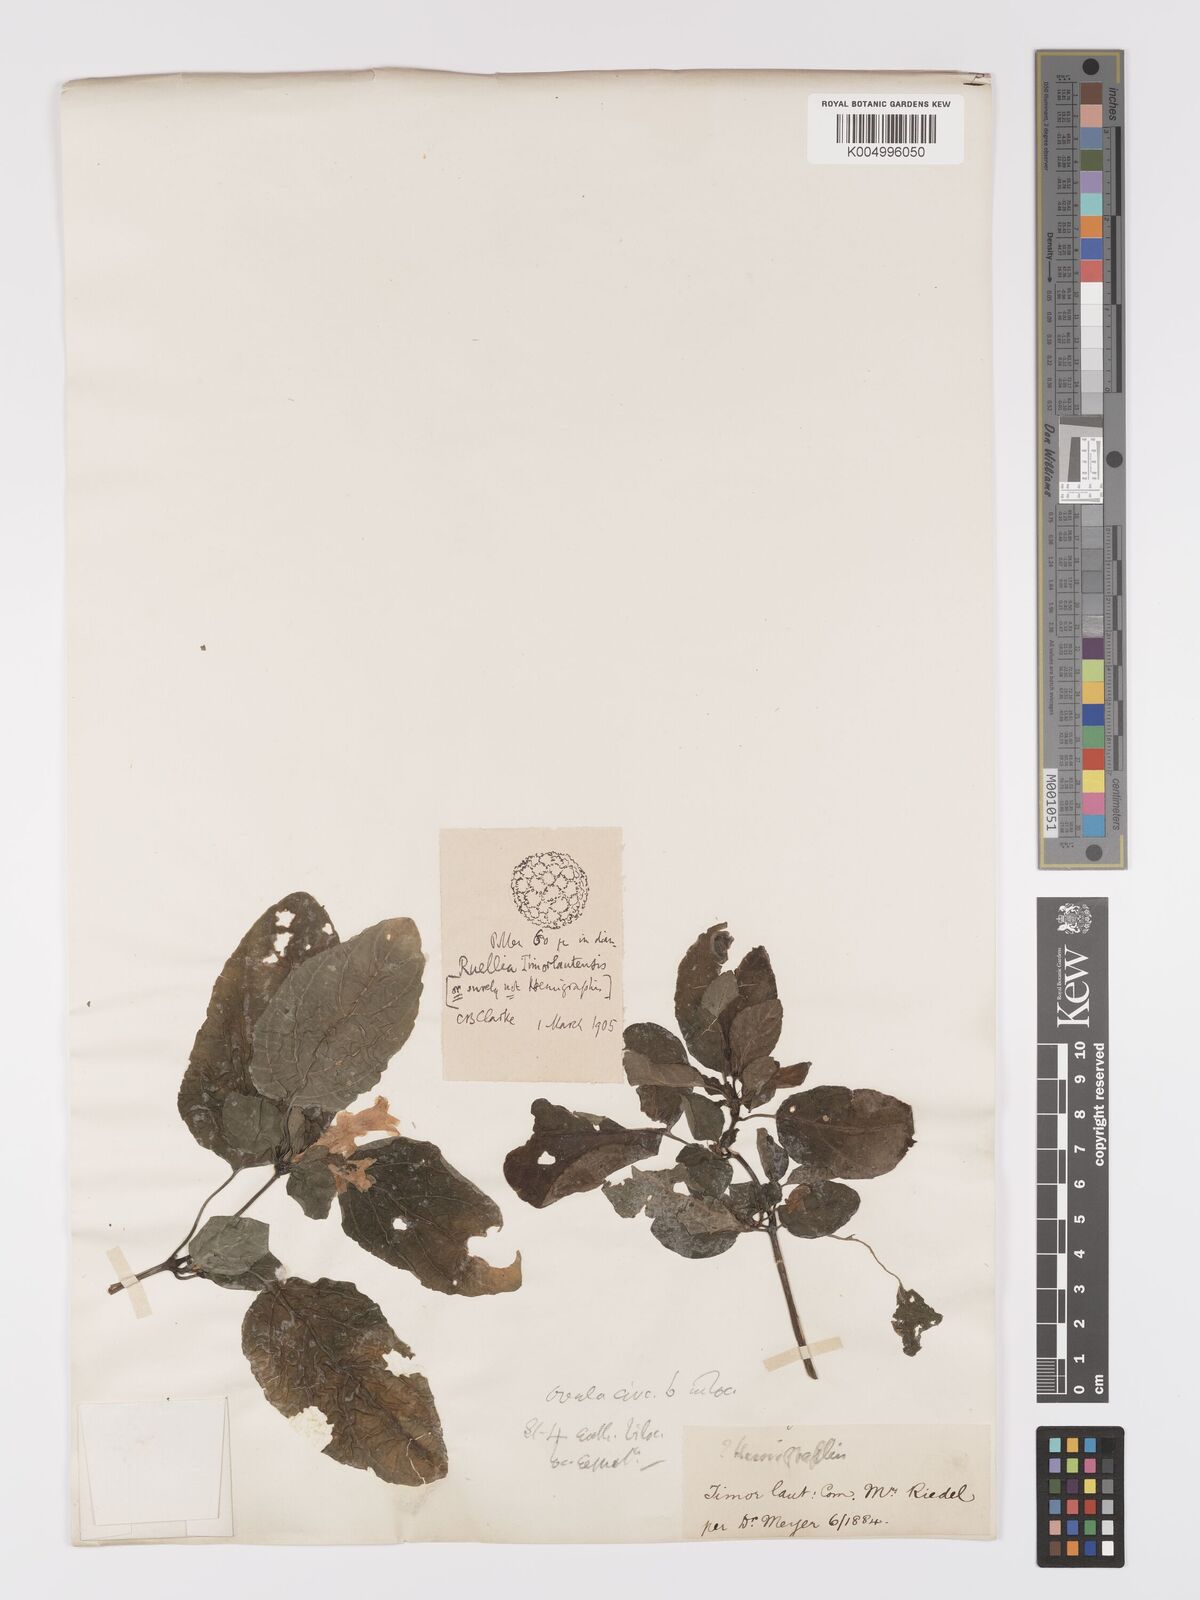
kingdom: Plantae
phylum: Tracheophyta
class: Magnoliopsida
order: Lamiales
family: Acanthaceae
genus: Ruellia
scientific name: Ruellia
